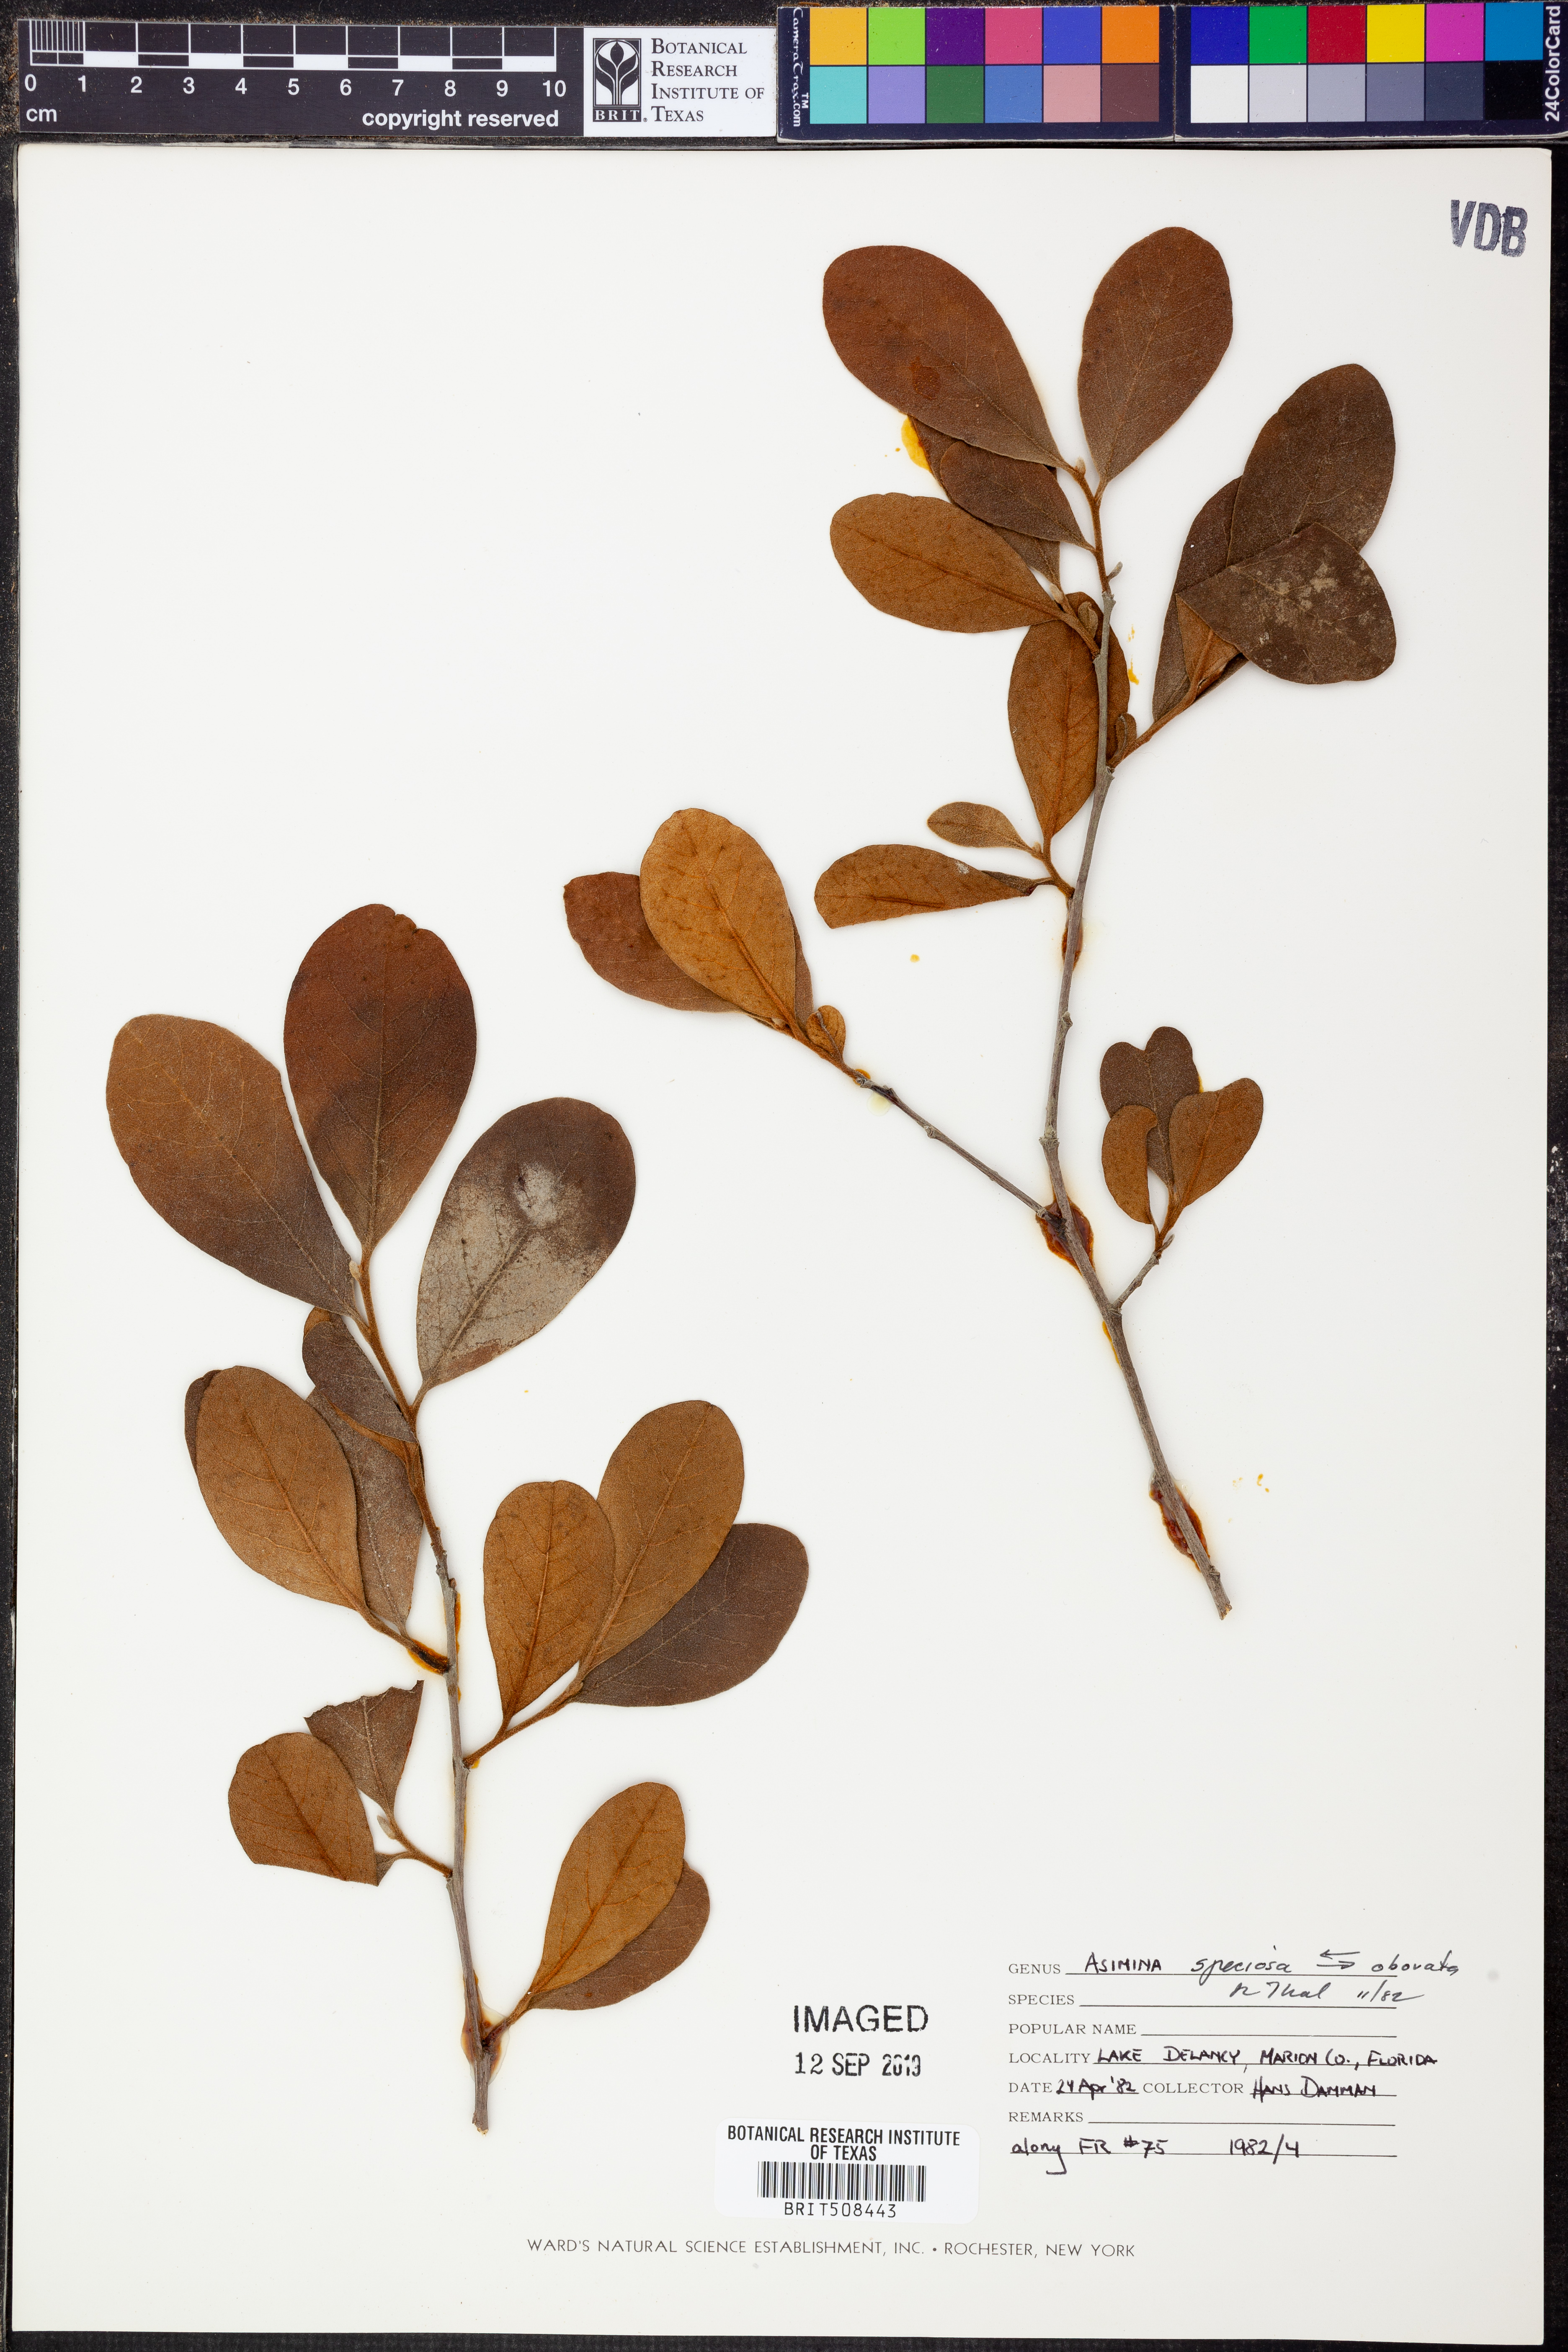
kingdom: Plantae
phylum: Tracheophyta
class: Magnoliopsida
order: Magnoliales
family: Annonaceae
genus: Asimina
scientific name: Asimina speciosa
